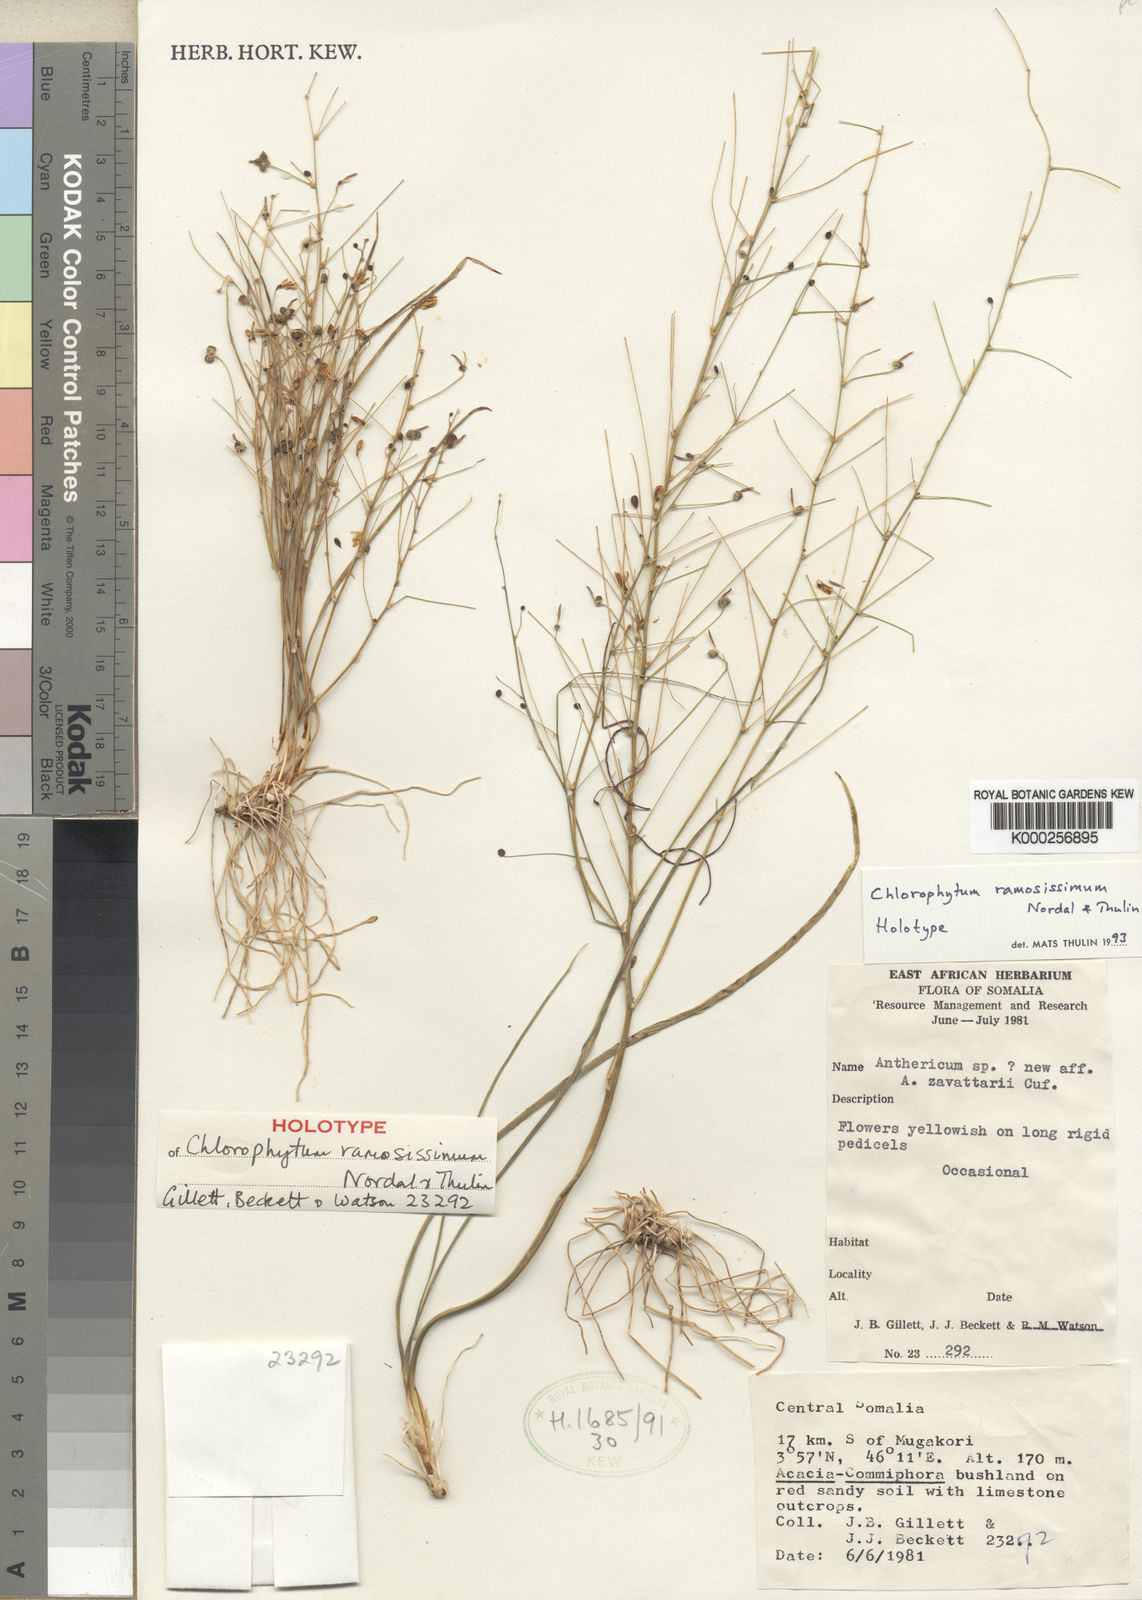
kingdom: Plantae
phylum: Tracheophyta
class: Liliopsida
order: Asparagales
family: Asparagaceae
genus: Chlorophytum
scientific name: Chlorophytum ramosissimum
